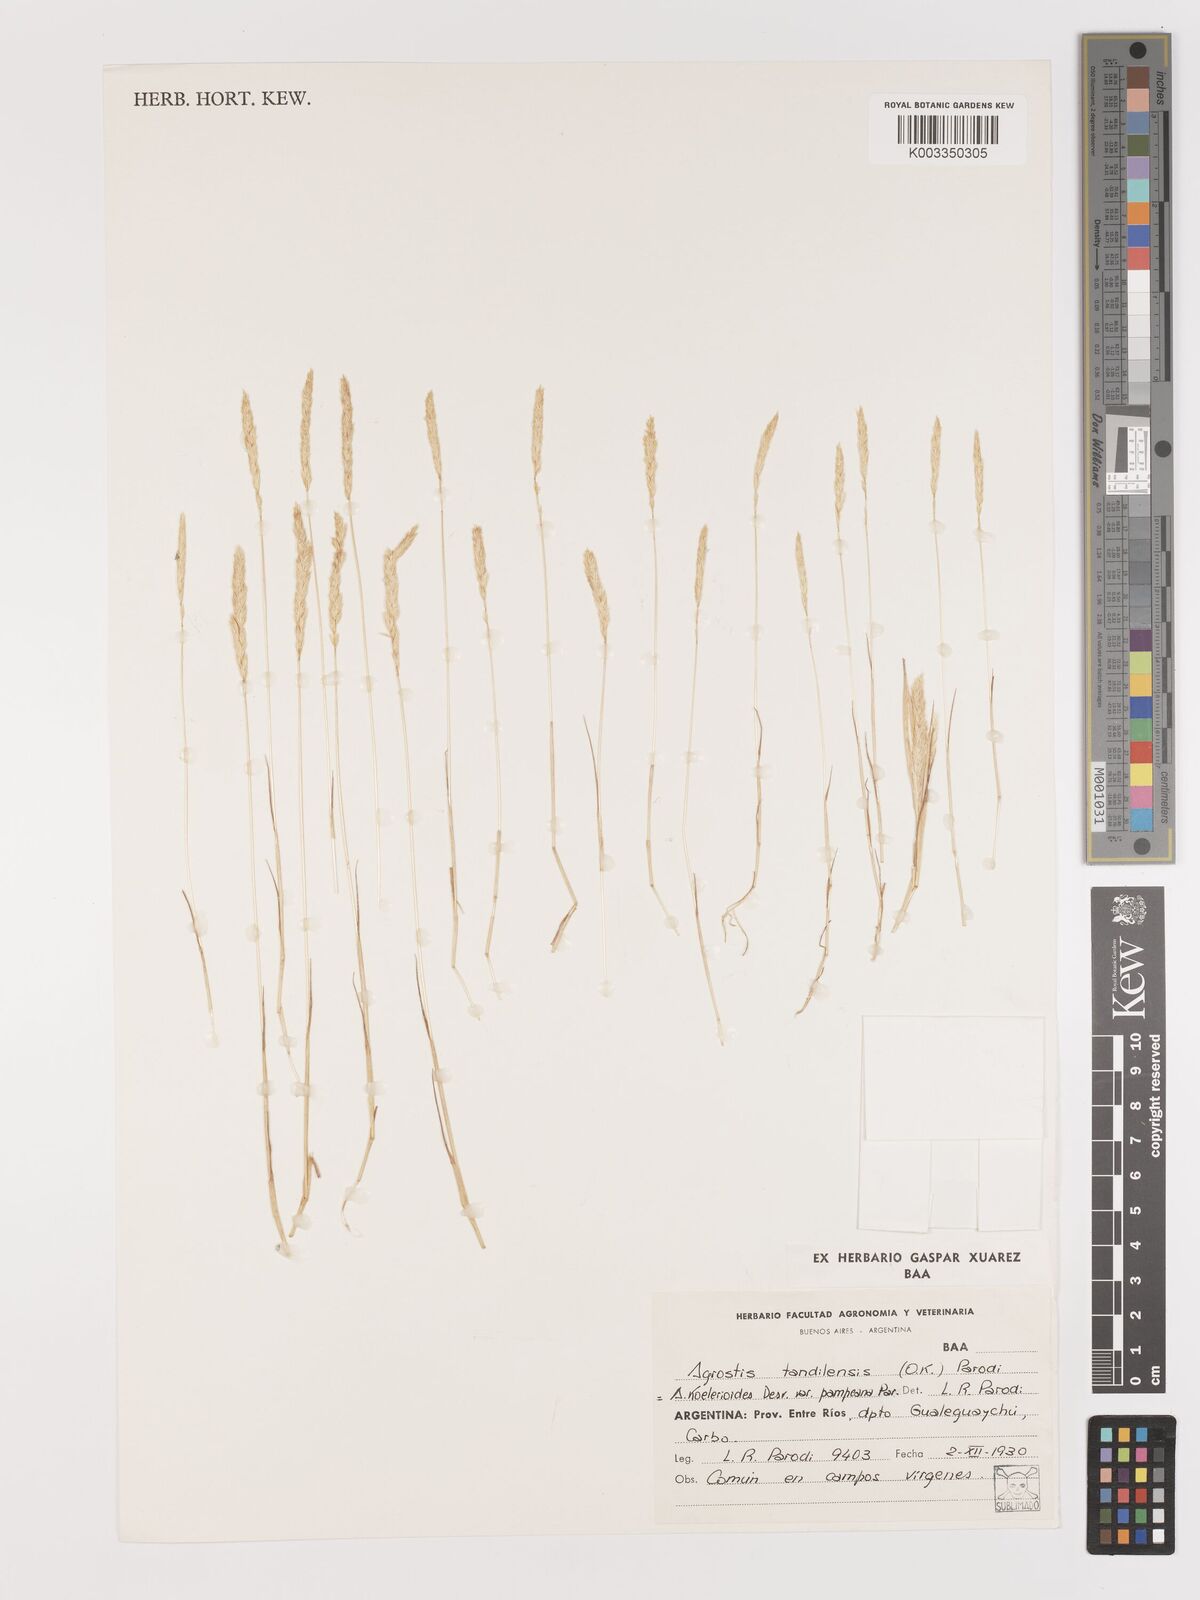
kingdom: Plantae
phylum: Tracheophyta
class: Liliopsida
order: Poales
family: Poaceae
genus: Agrostis
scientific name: Agrostis tandilensis
